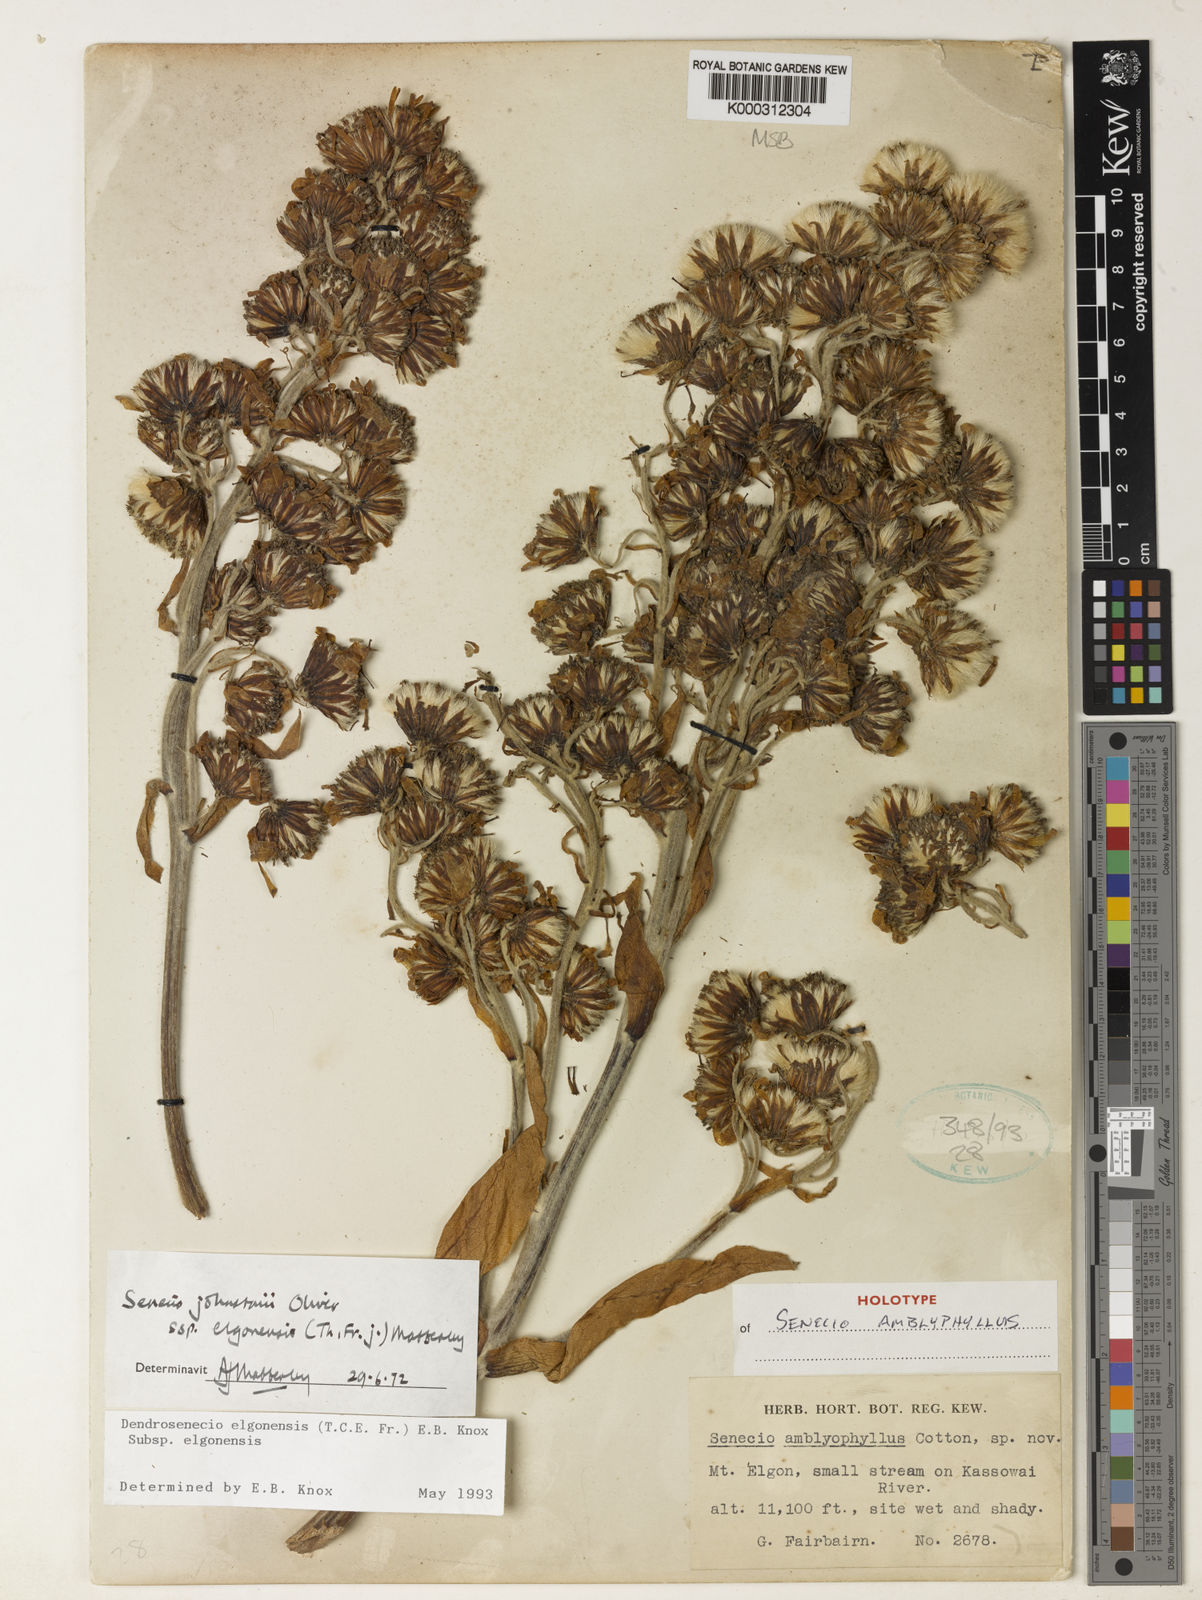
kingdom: Plantae
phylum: Tracheophyta
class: Magnoliopsida
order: Asterales
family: Asteraceae
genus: Dendrosenecio
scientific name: Dendrosenecio elgonensis
